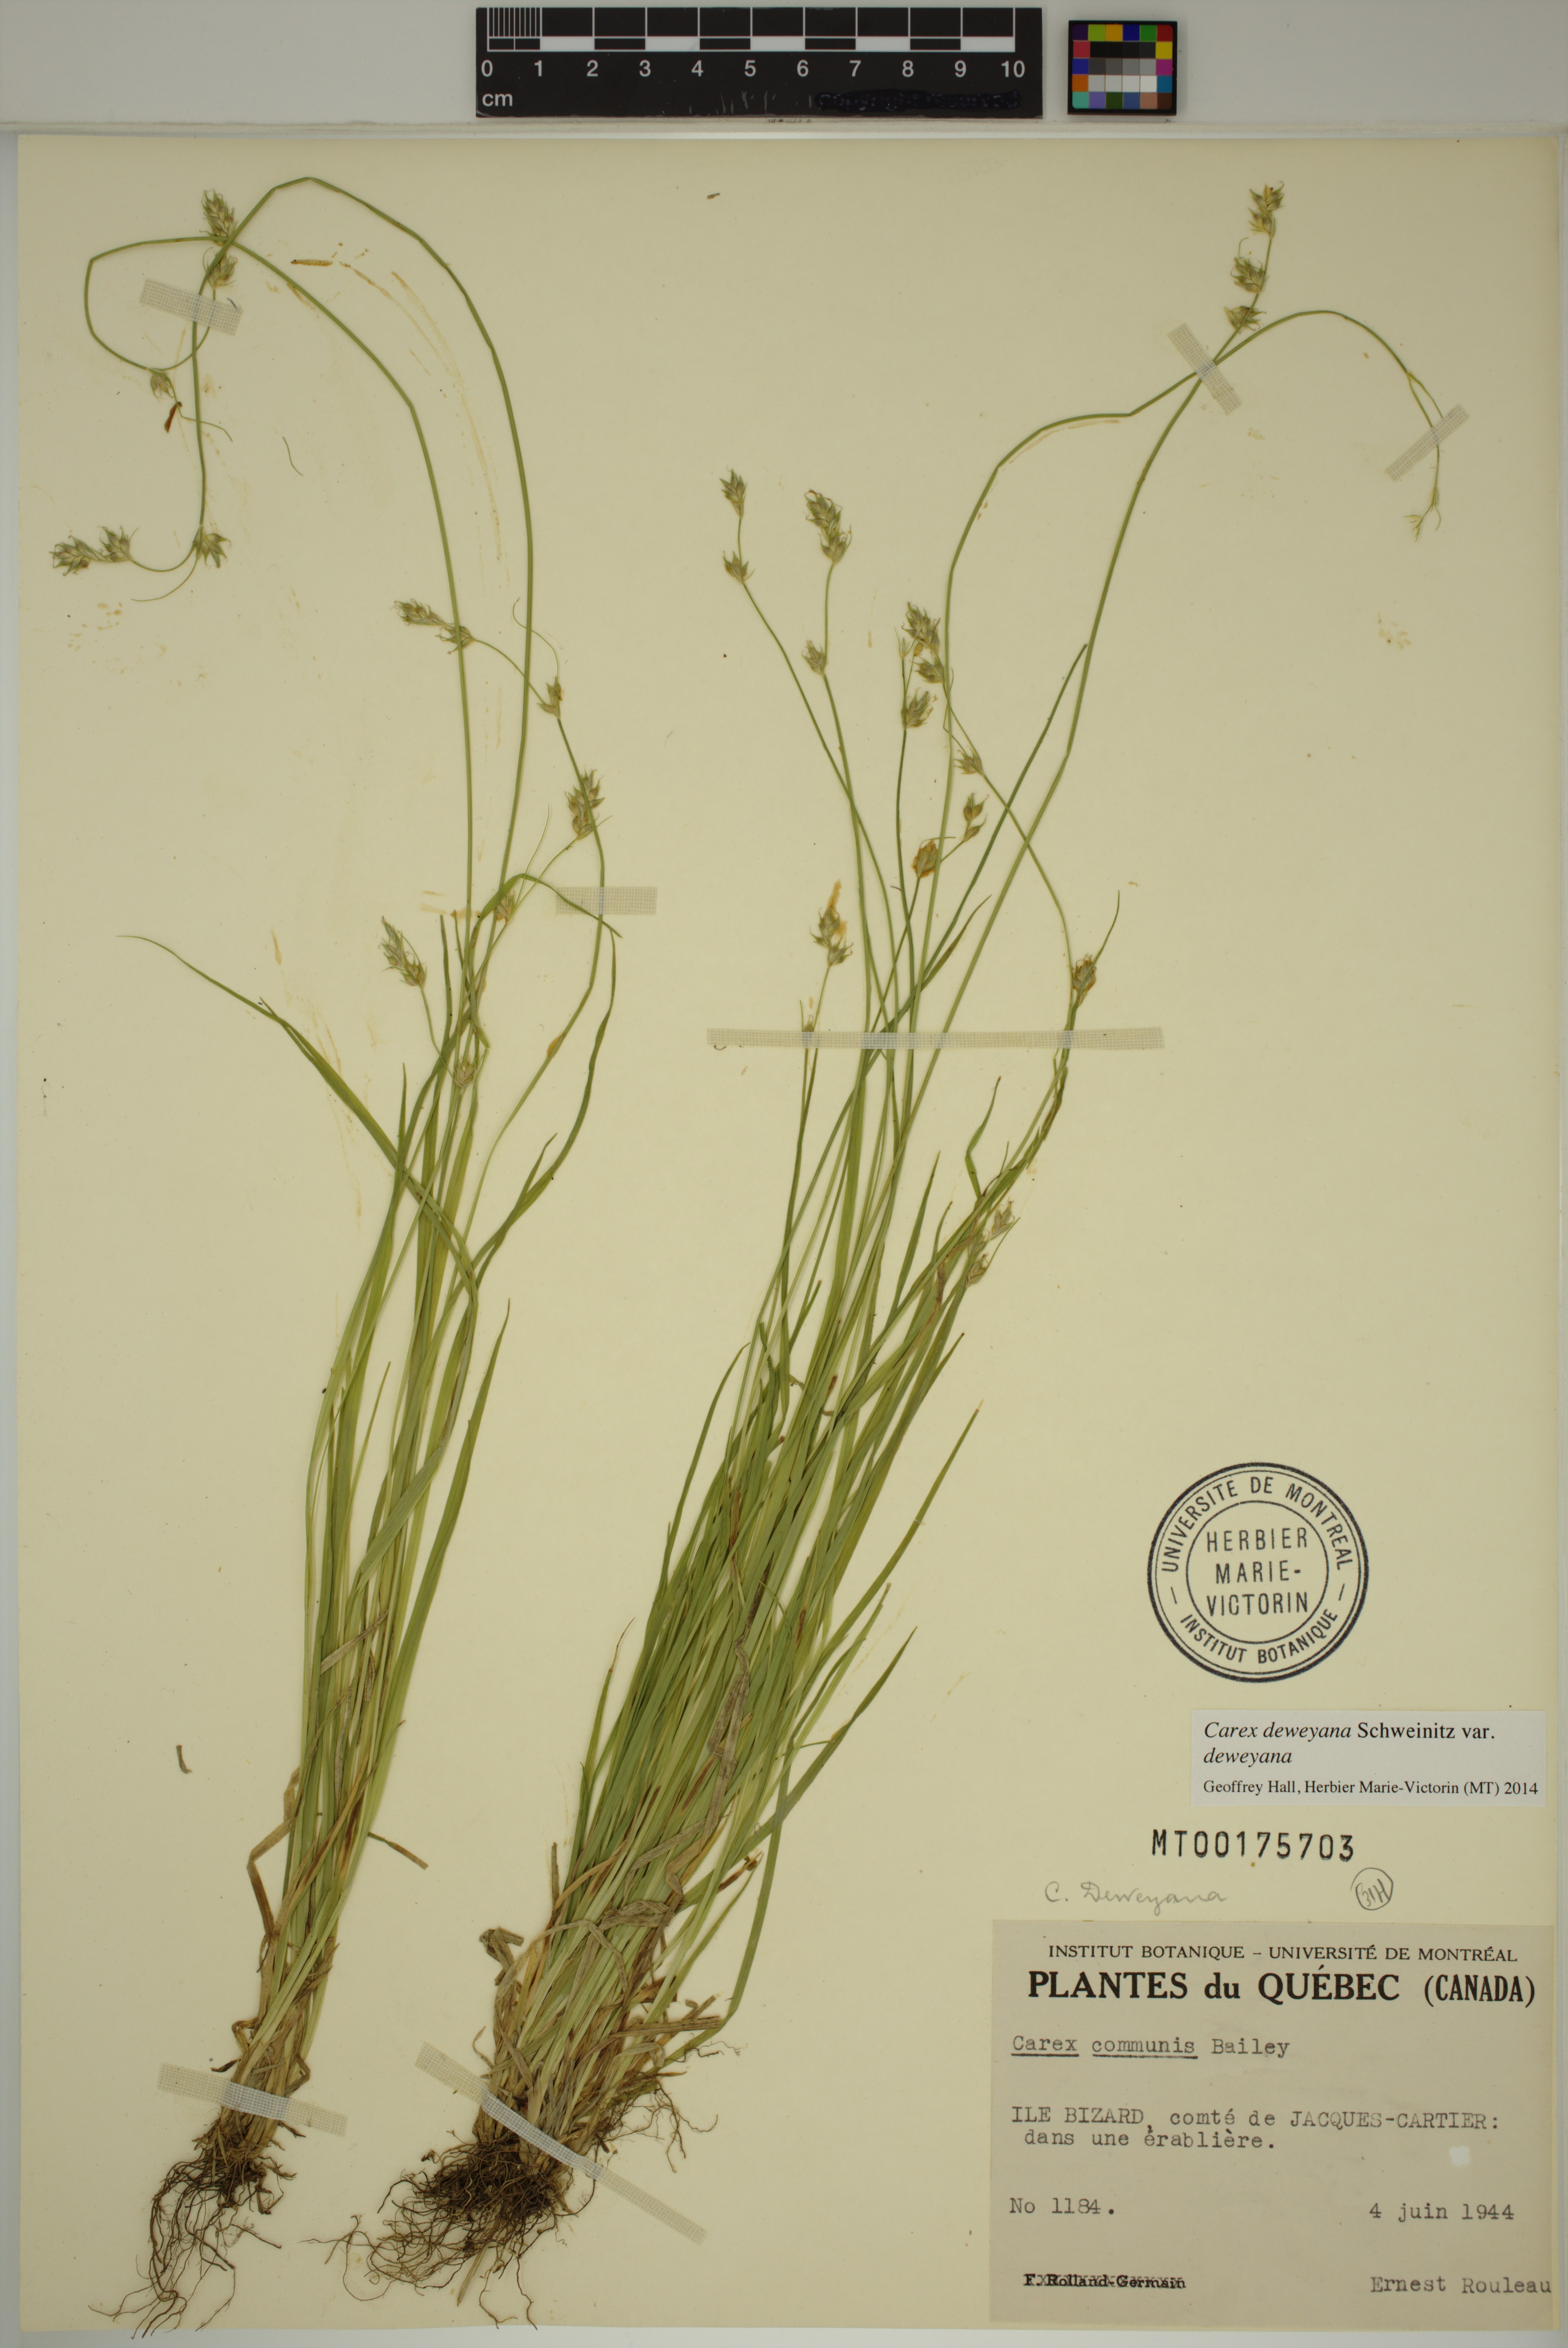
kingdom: Plantae
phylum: Tracheophyta
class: Liliopsida
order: Poales
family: Cyperaceae
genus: Carex
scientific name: Carex deweyana
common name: Dewey's sedge
